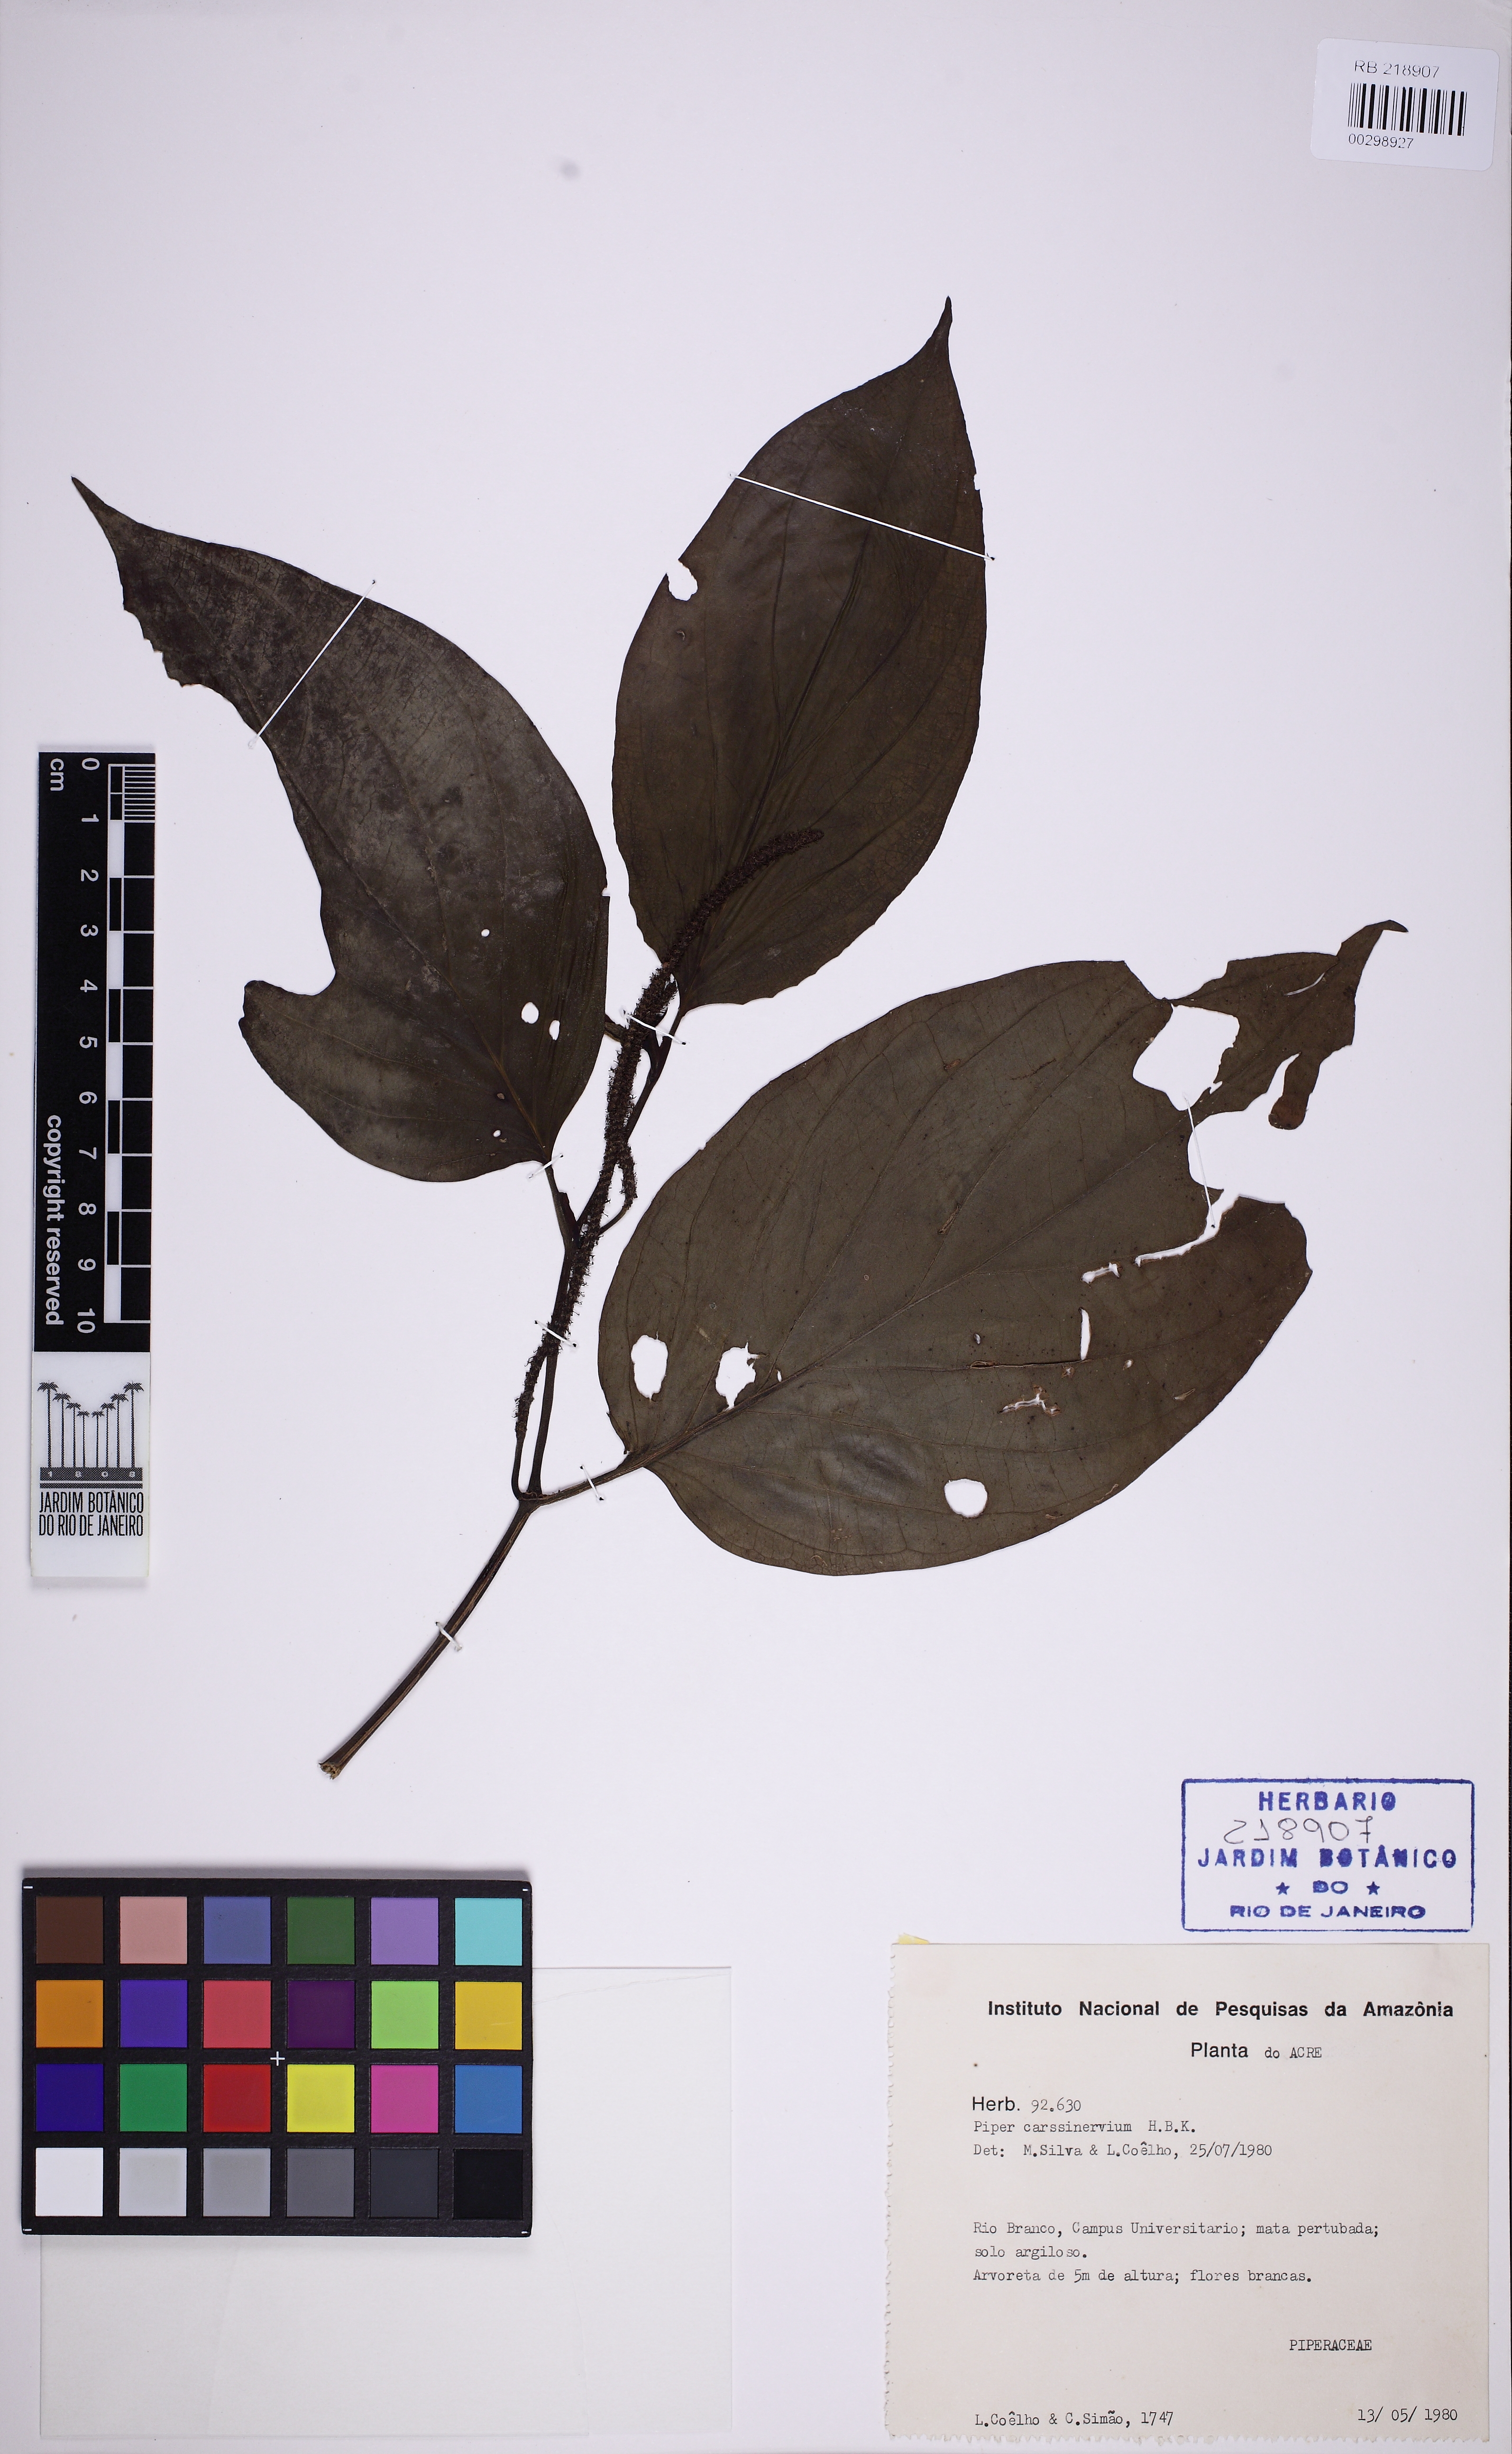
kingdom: Plantae
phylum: Tracheophyta
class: Magnoliopsida
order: Piperales
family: Piperaceae
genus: Piper
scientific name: Piper crassinervium
